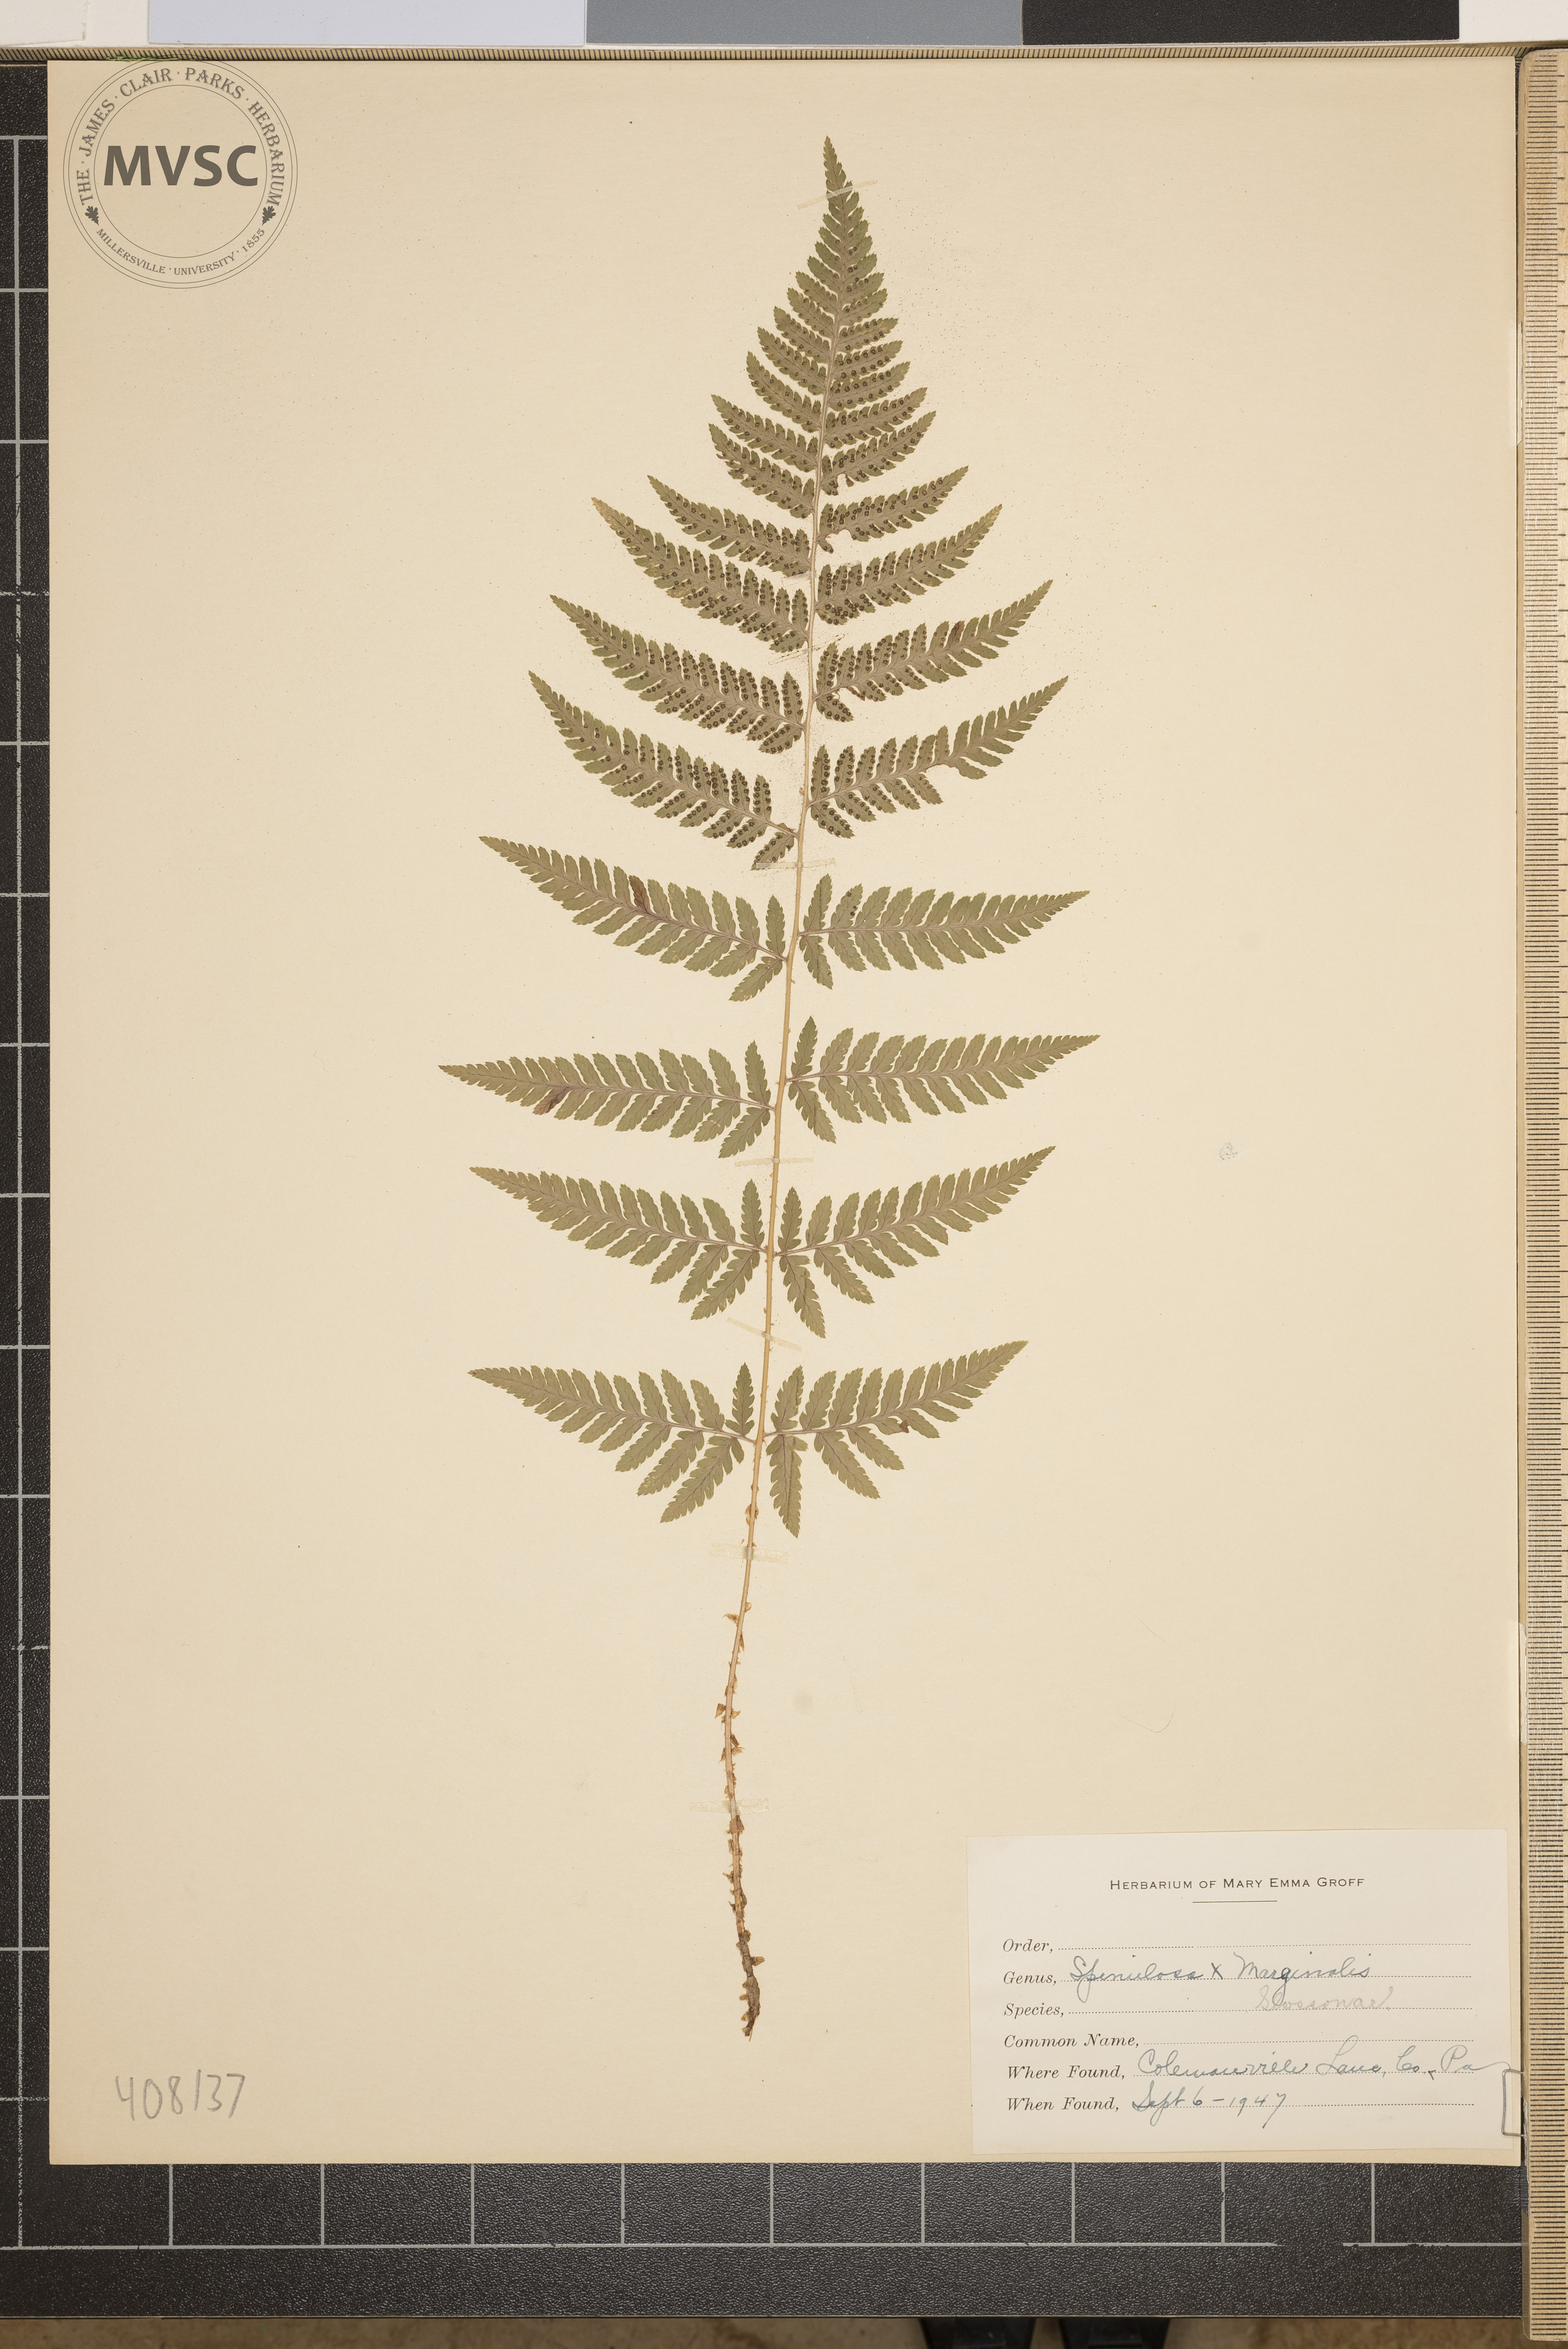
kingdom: Plantae
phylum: Tracheophyta
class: Polypodiopsida
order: Polypodiales
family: Dryopteridaceae
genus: Dryopteris
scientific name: Dryopteris
